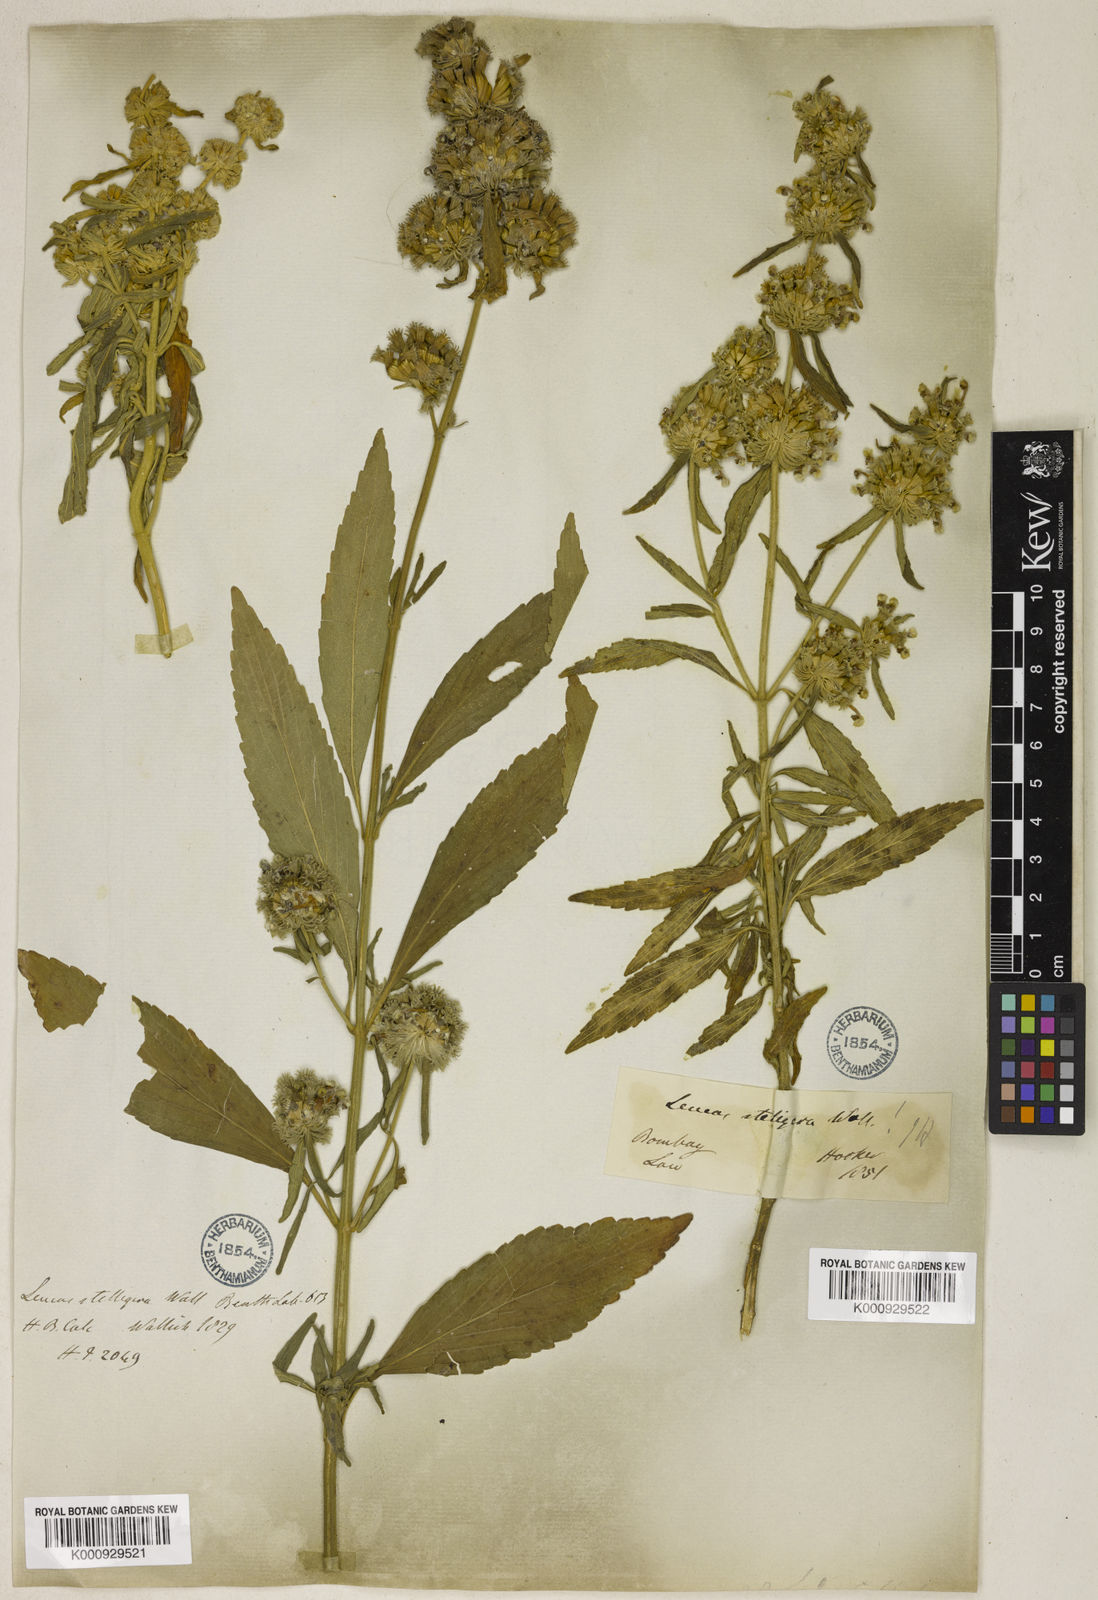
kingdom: Plantae
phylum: Tracheophyta
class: Magnoliopsida
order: Lamiales
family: Lamiaceae
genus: Leucas
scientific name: Leucas stelligera
